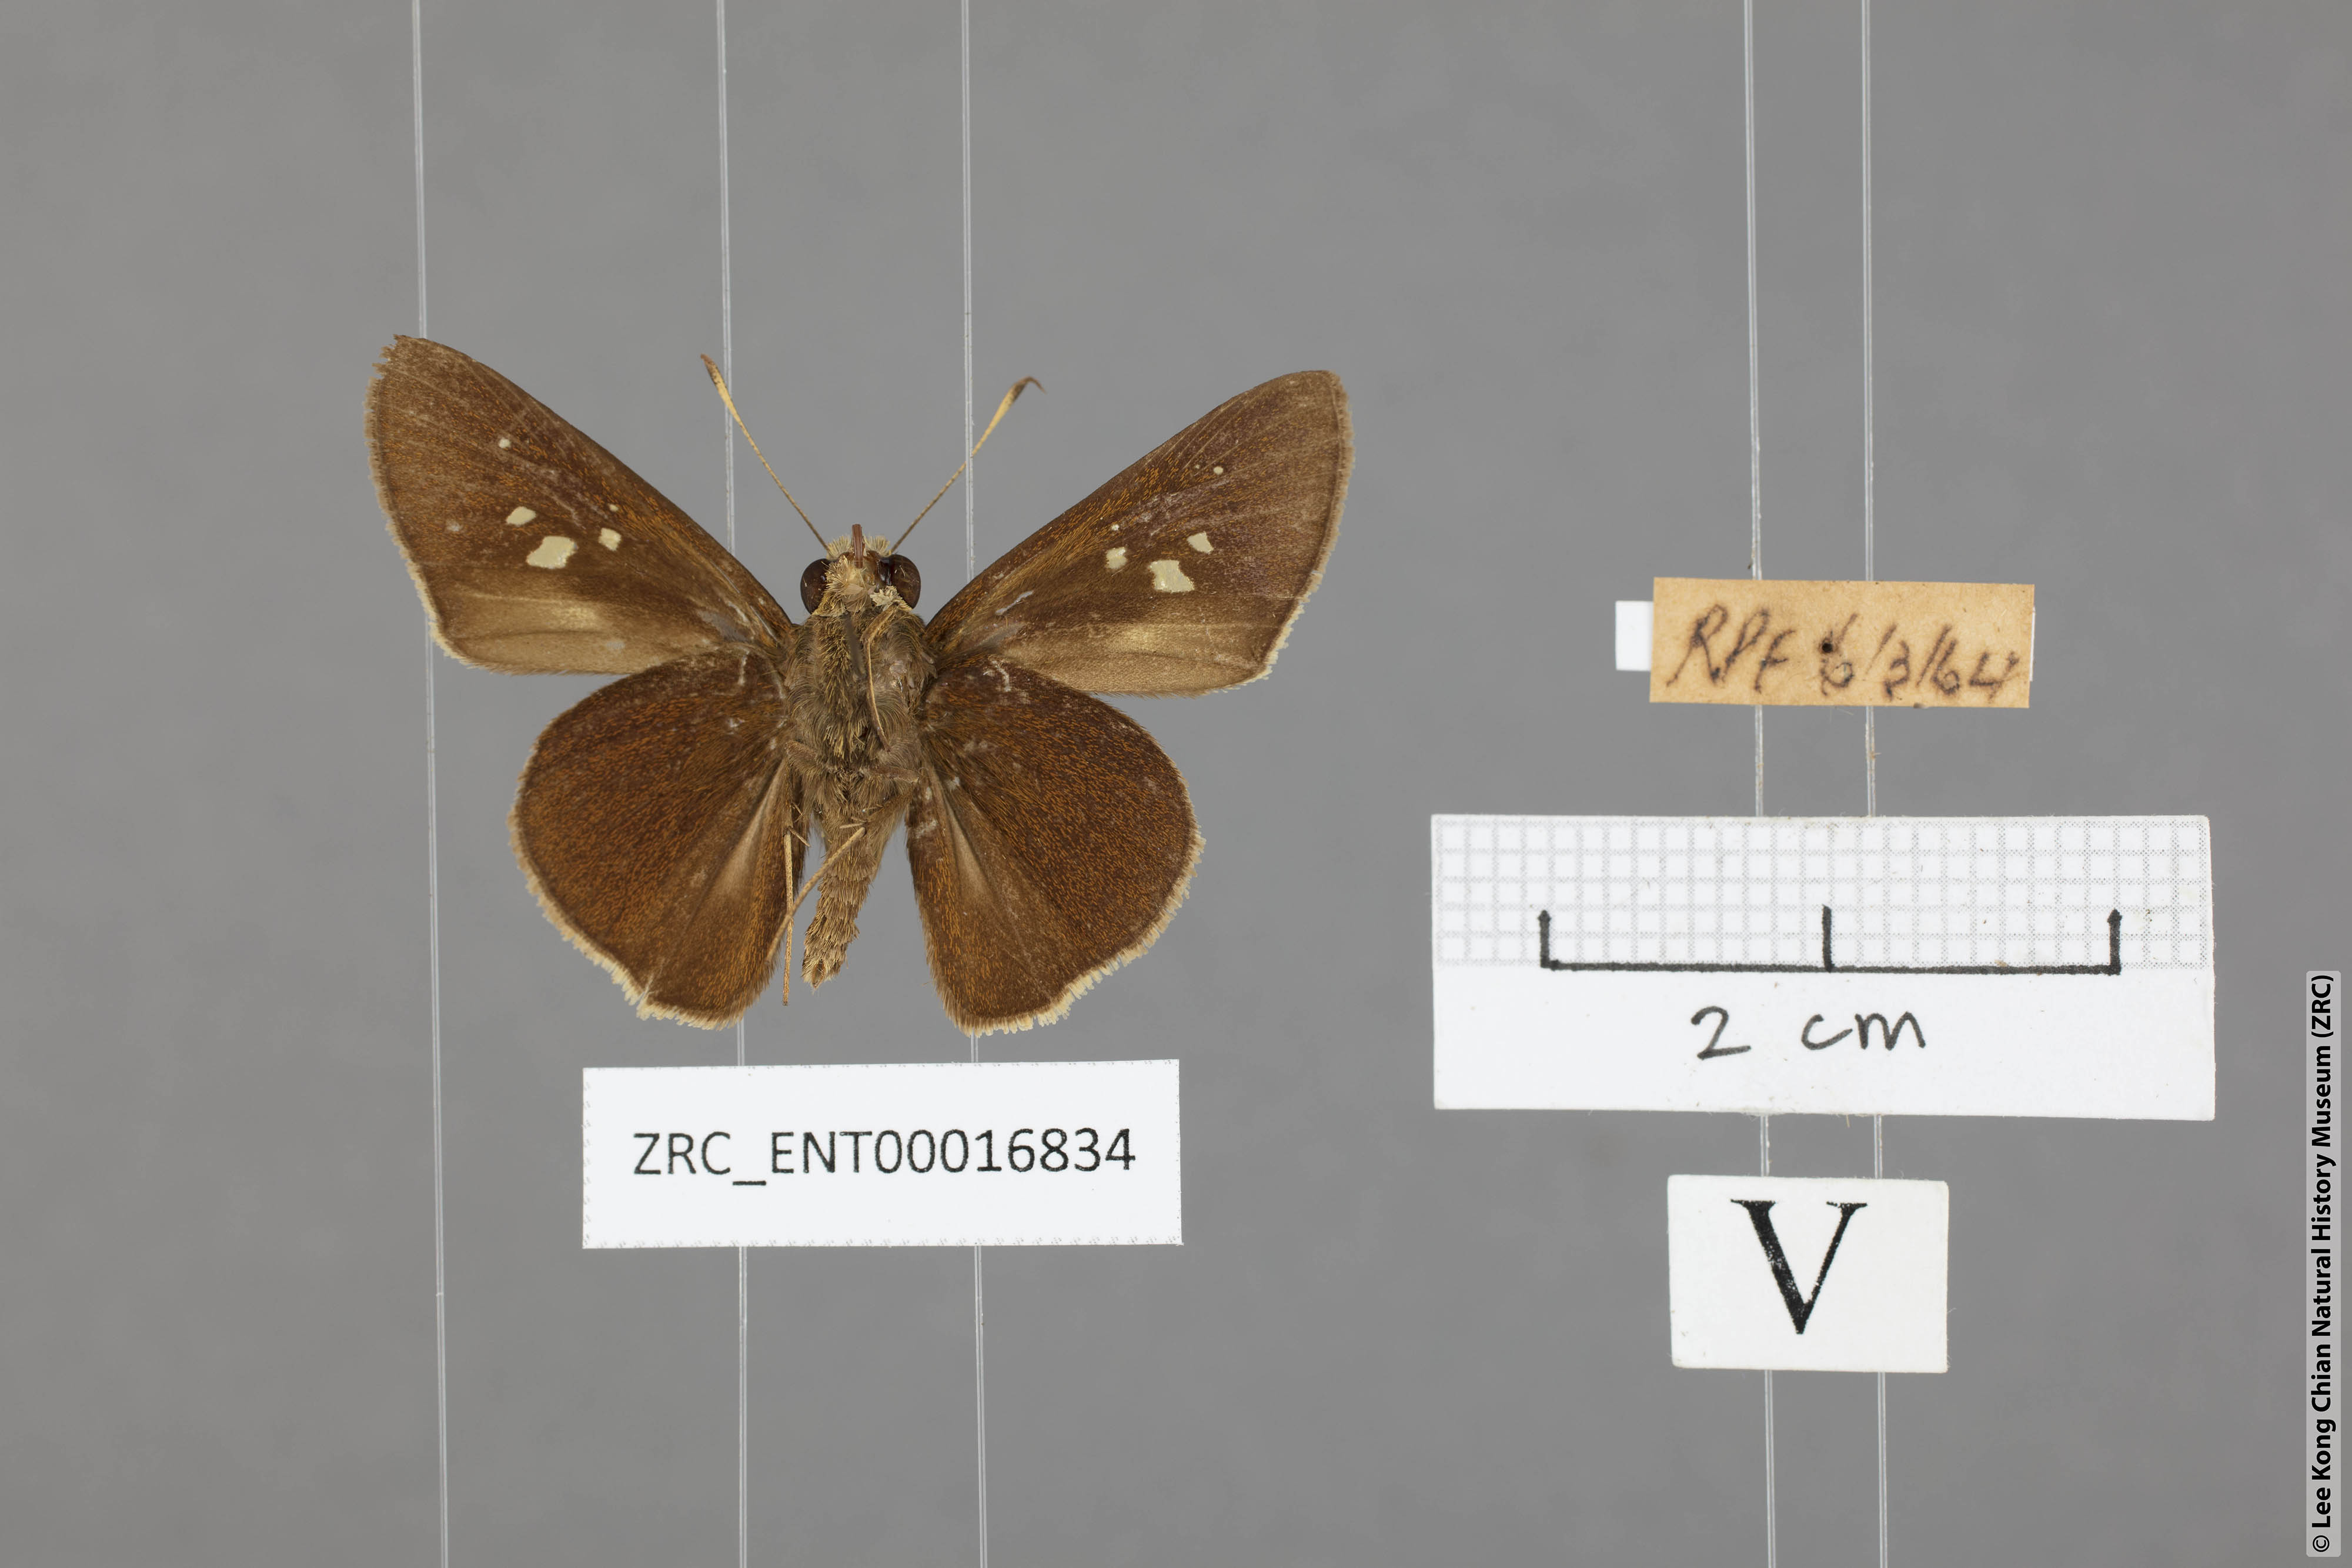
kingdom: Animalia
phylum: Arthropoda
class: Insecta
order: Lepidoptera
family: Hesperiidae
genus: Caltoris
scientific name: Caltoris cormasa
